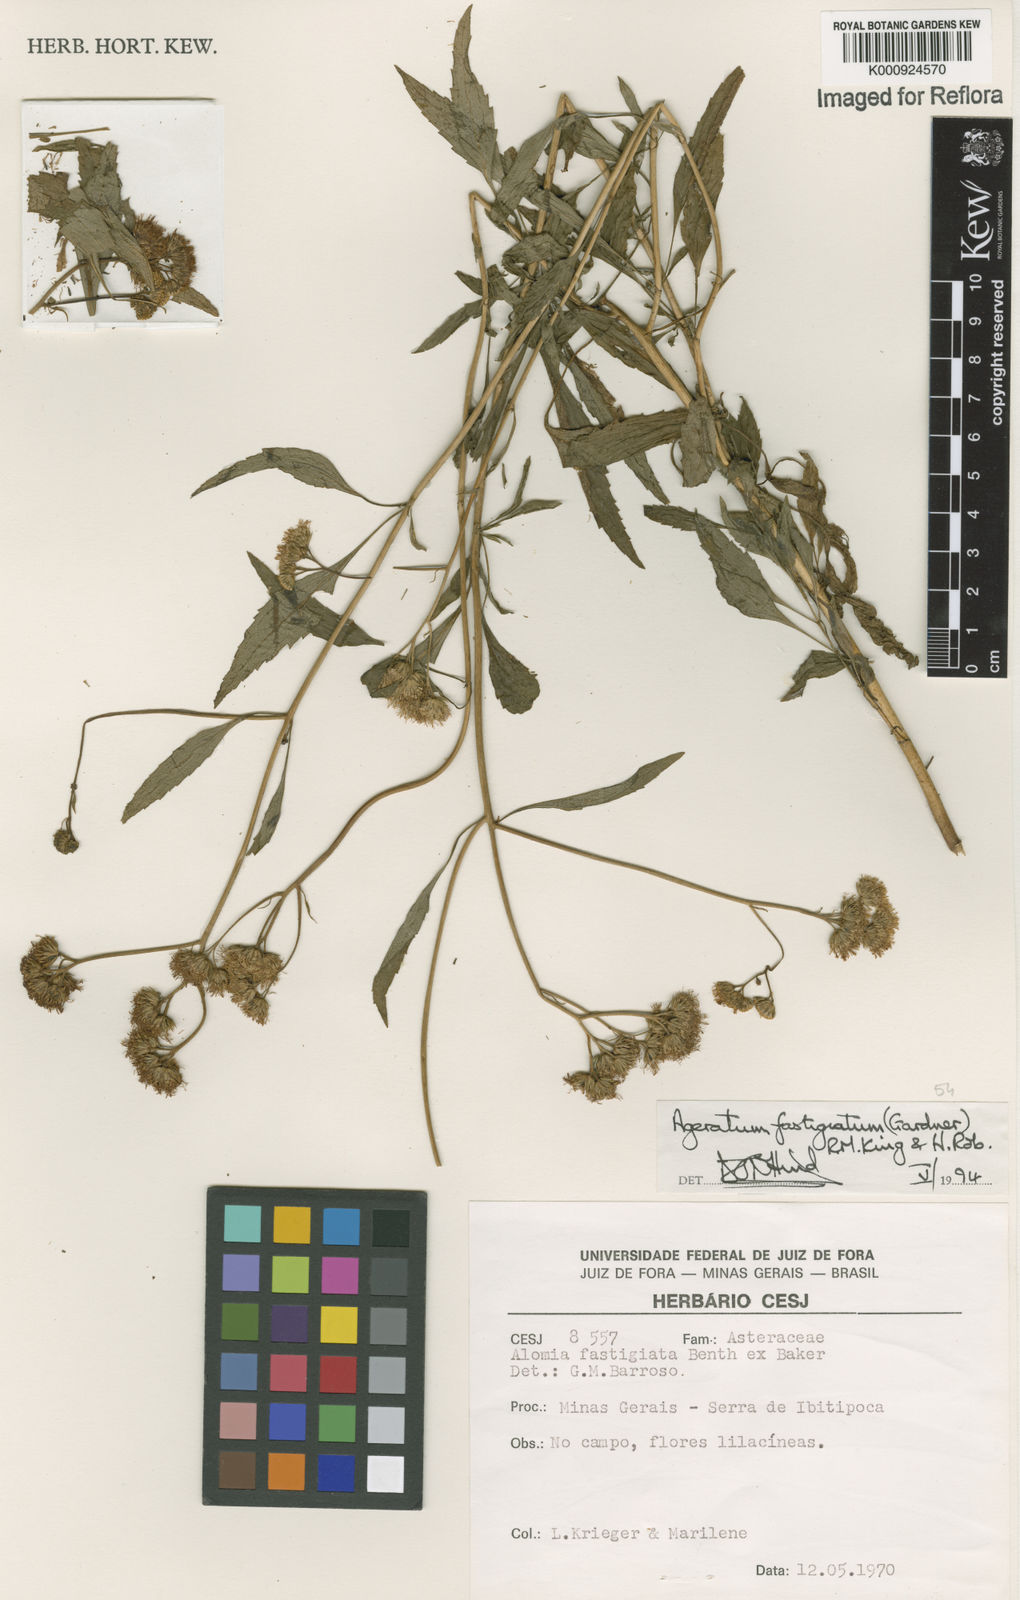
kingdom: Plantae
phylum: Tracheophyta
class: Magnoliopsida
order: Asterales
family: Asteraceae
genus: Ageratum
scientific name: Ageratum fastigiatum
